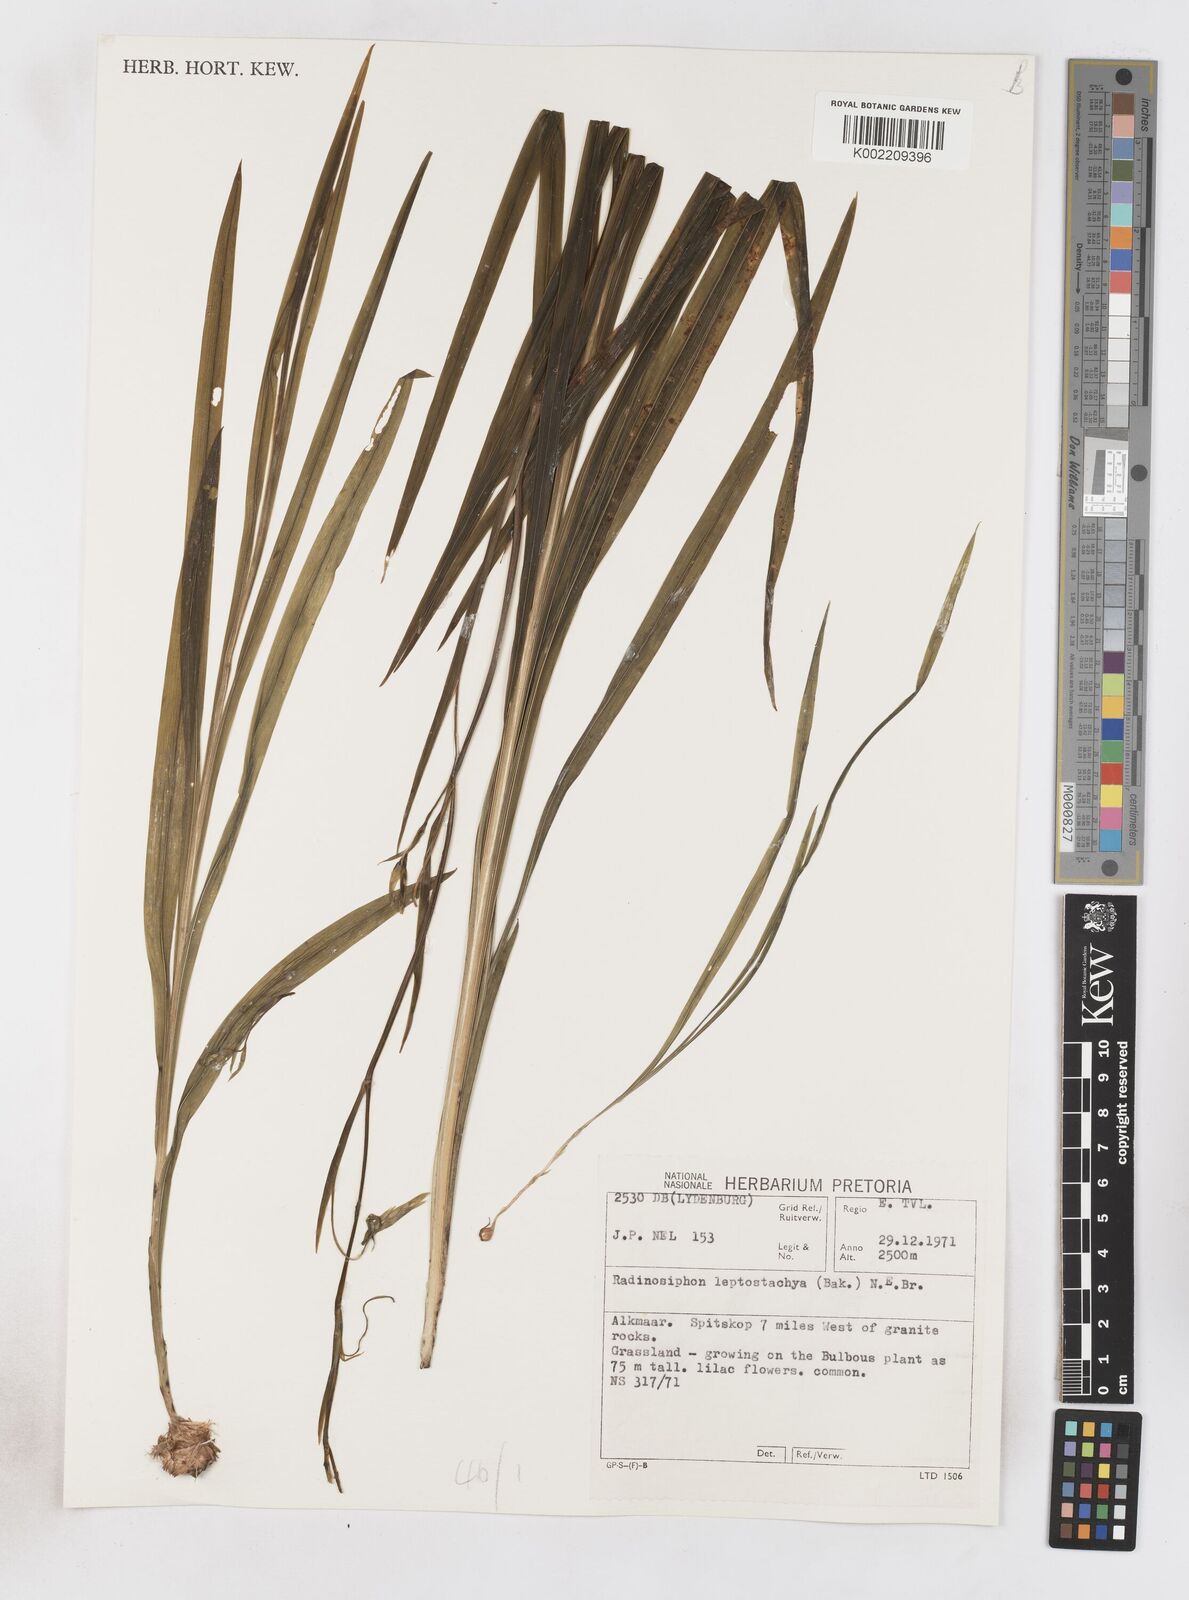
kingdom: Plantae
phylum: Tracheophyta
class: Liliopsida
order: Asparagales
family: Iridaceae
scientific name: Iridaceae
